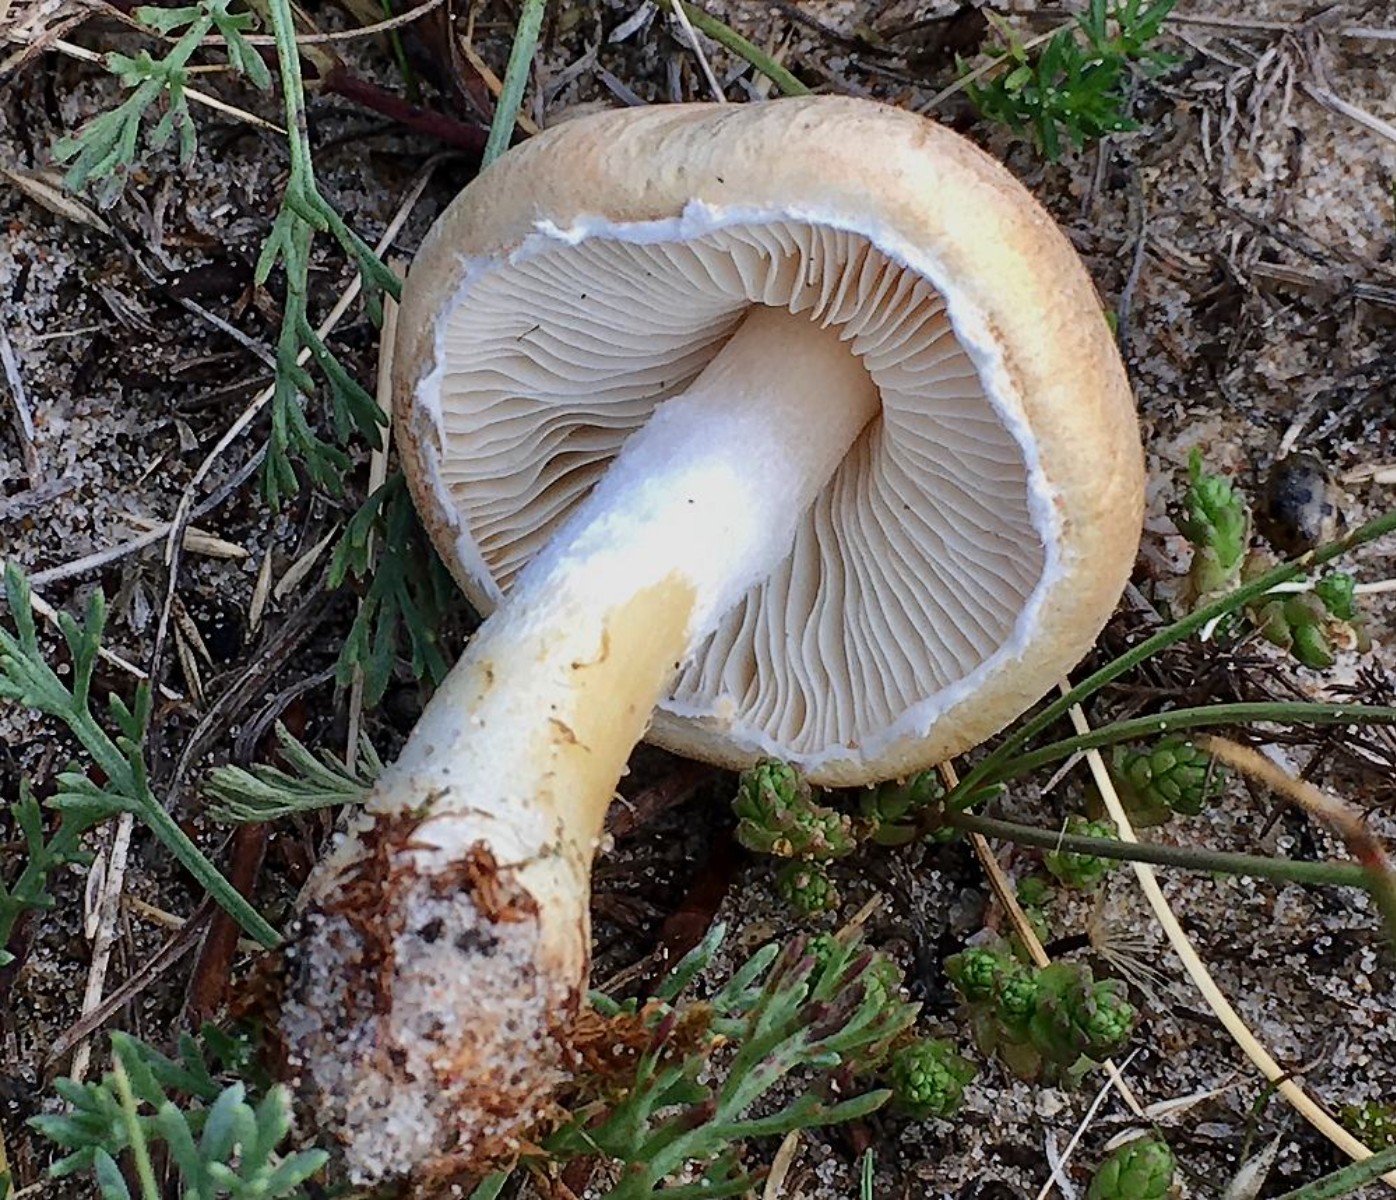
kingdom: Fungi
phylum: Basidiomycota
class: Agaricomycetes
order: Agaricales
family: Agaricaceae
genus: Lepiota
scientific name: Lepiota
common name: parasolhat
